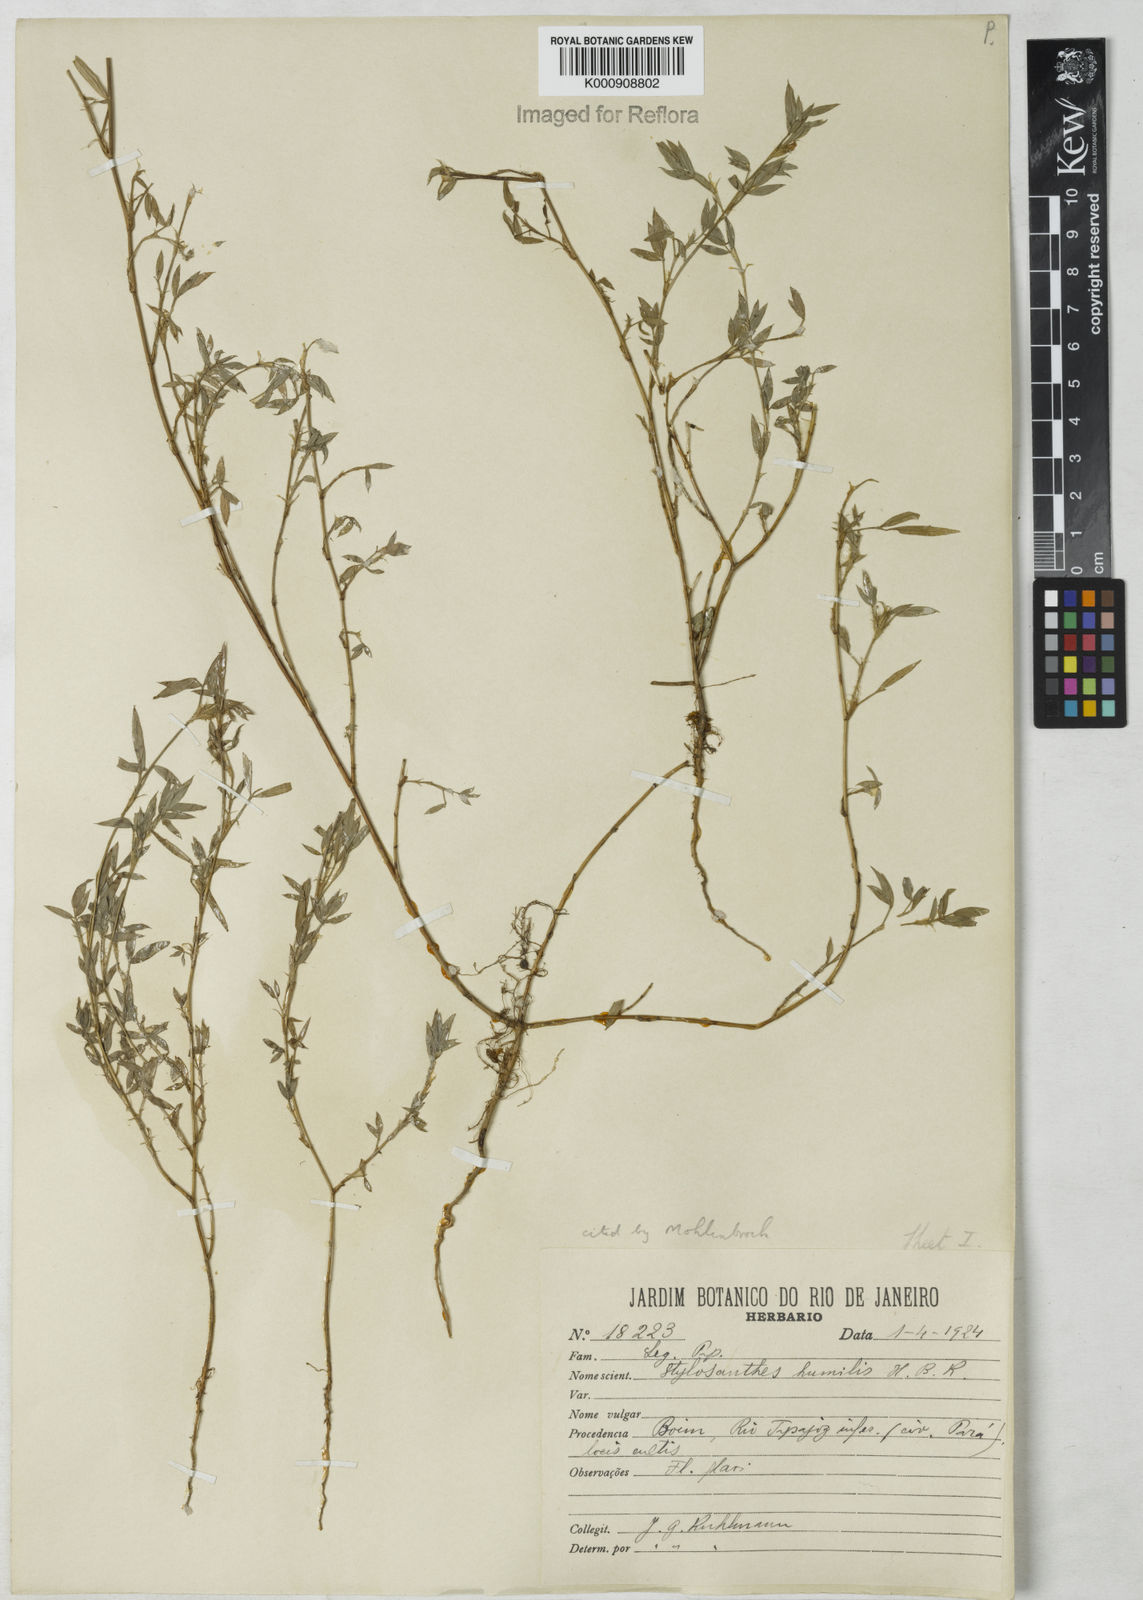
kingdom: Plantae
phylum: Tracheophyta
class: Magnoliopsida
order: Fabales
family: Fabaceae
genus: Stylosanthes
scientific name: Stylosanthes humilis
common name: Townsville stylo
